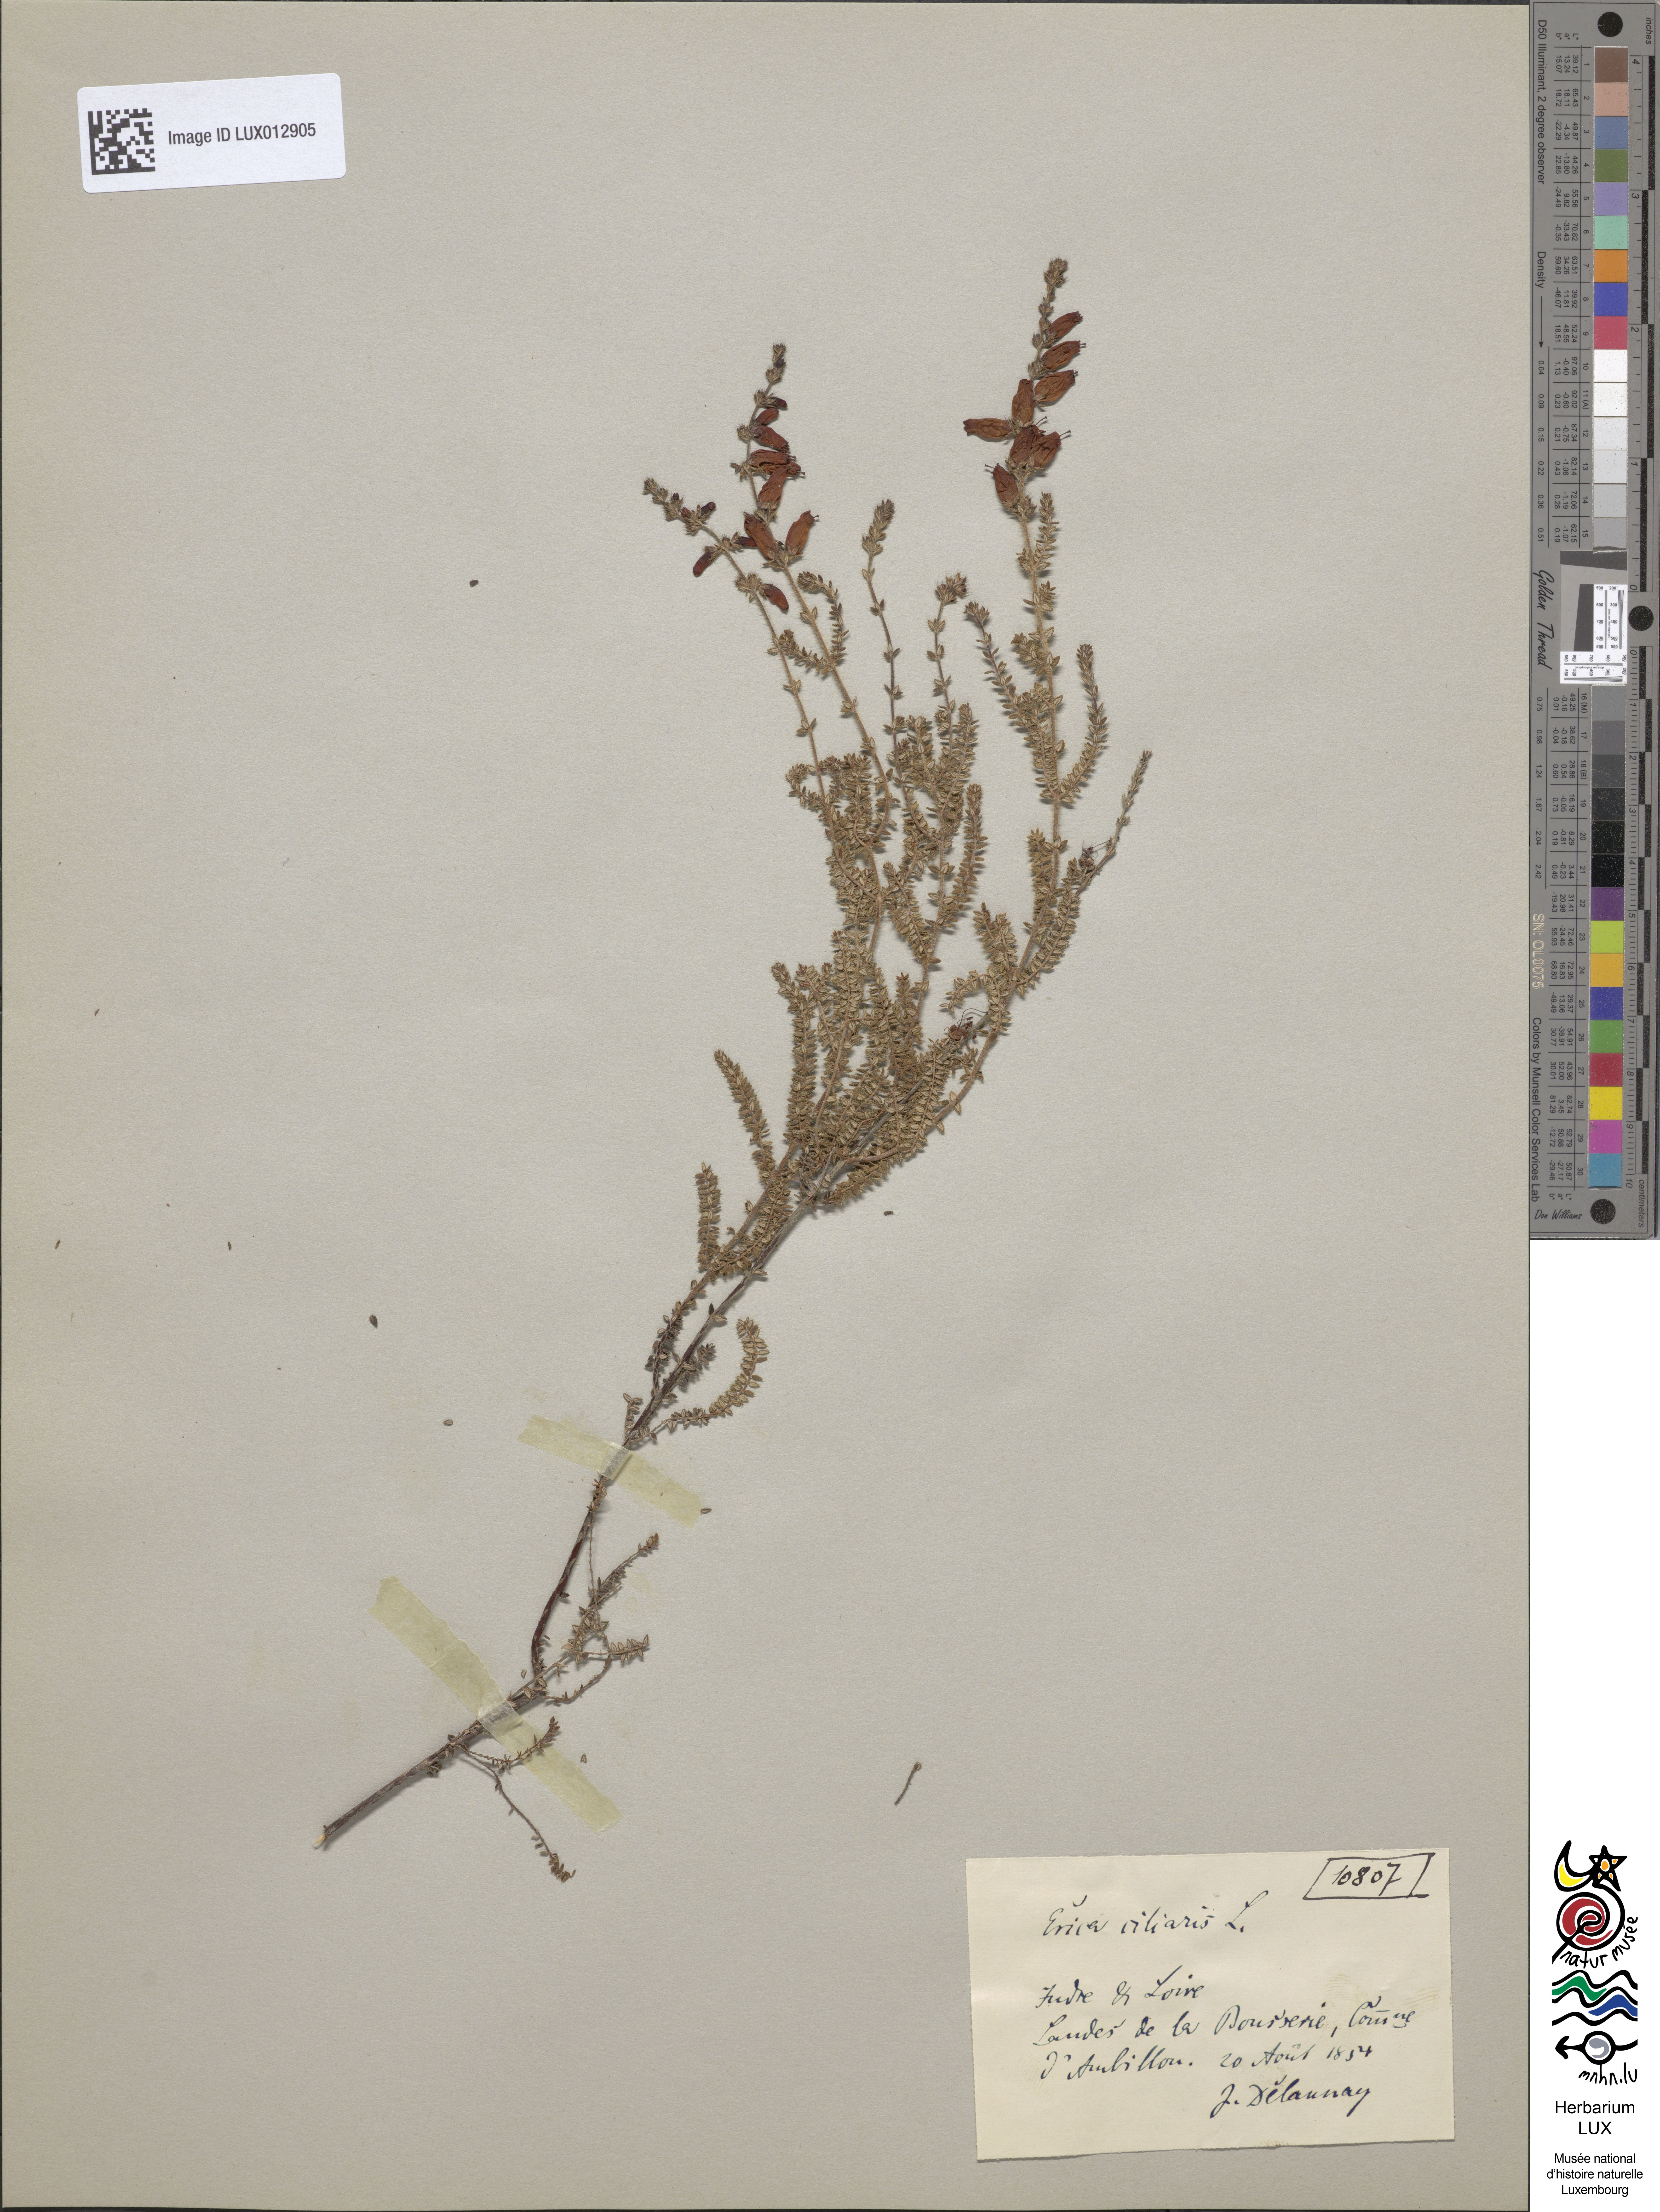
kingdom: Plantae
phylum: Tracheophyta
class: Magnoliopsida
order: Ericales
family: Ericaceae
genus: Erica
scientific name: Erica ciliaris
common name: Dorset heath
